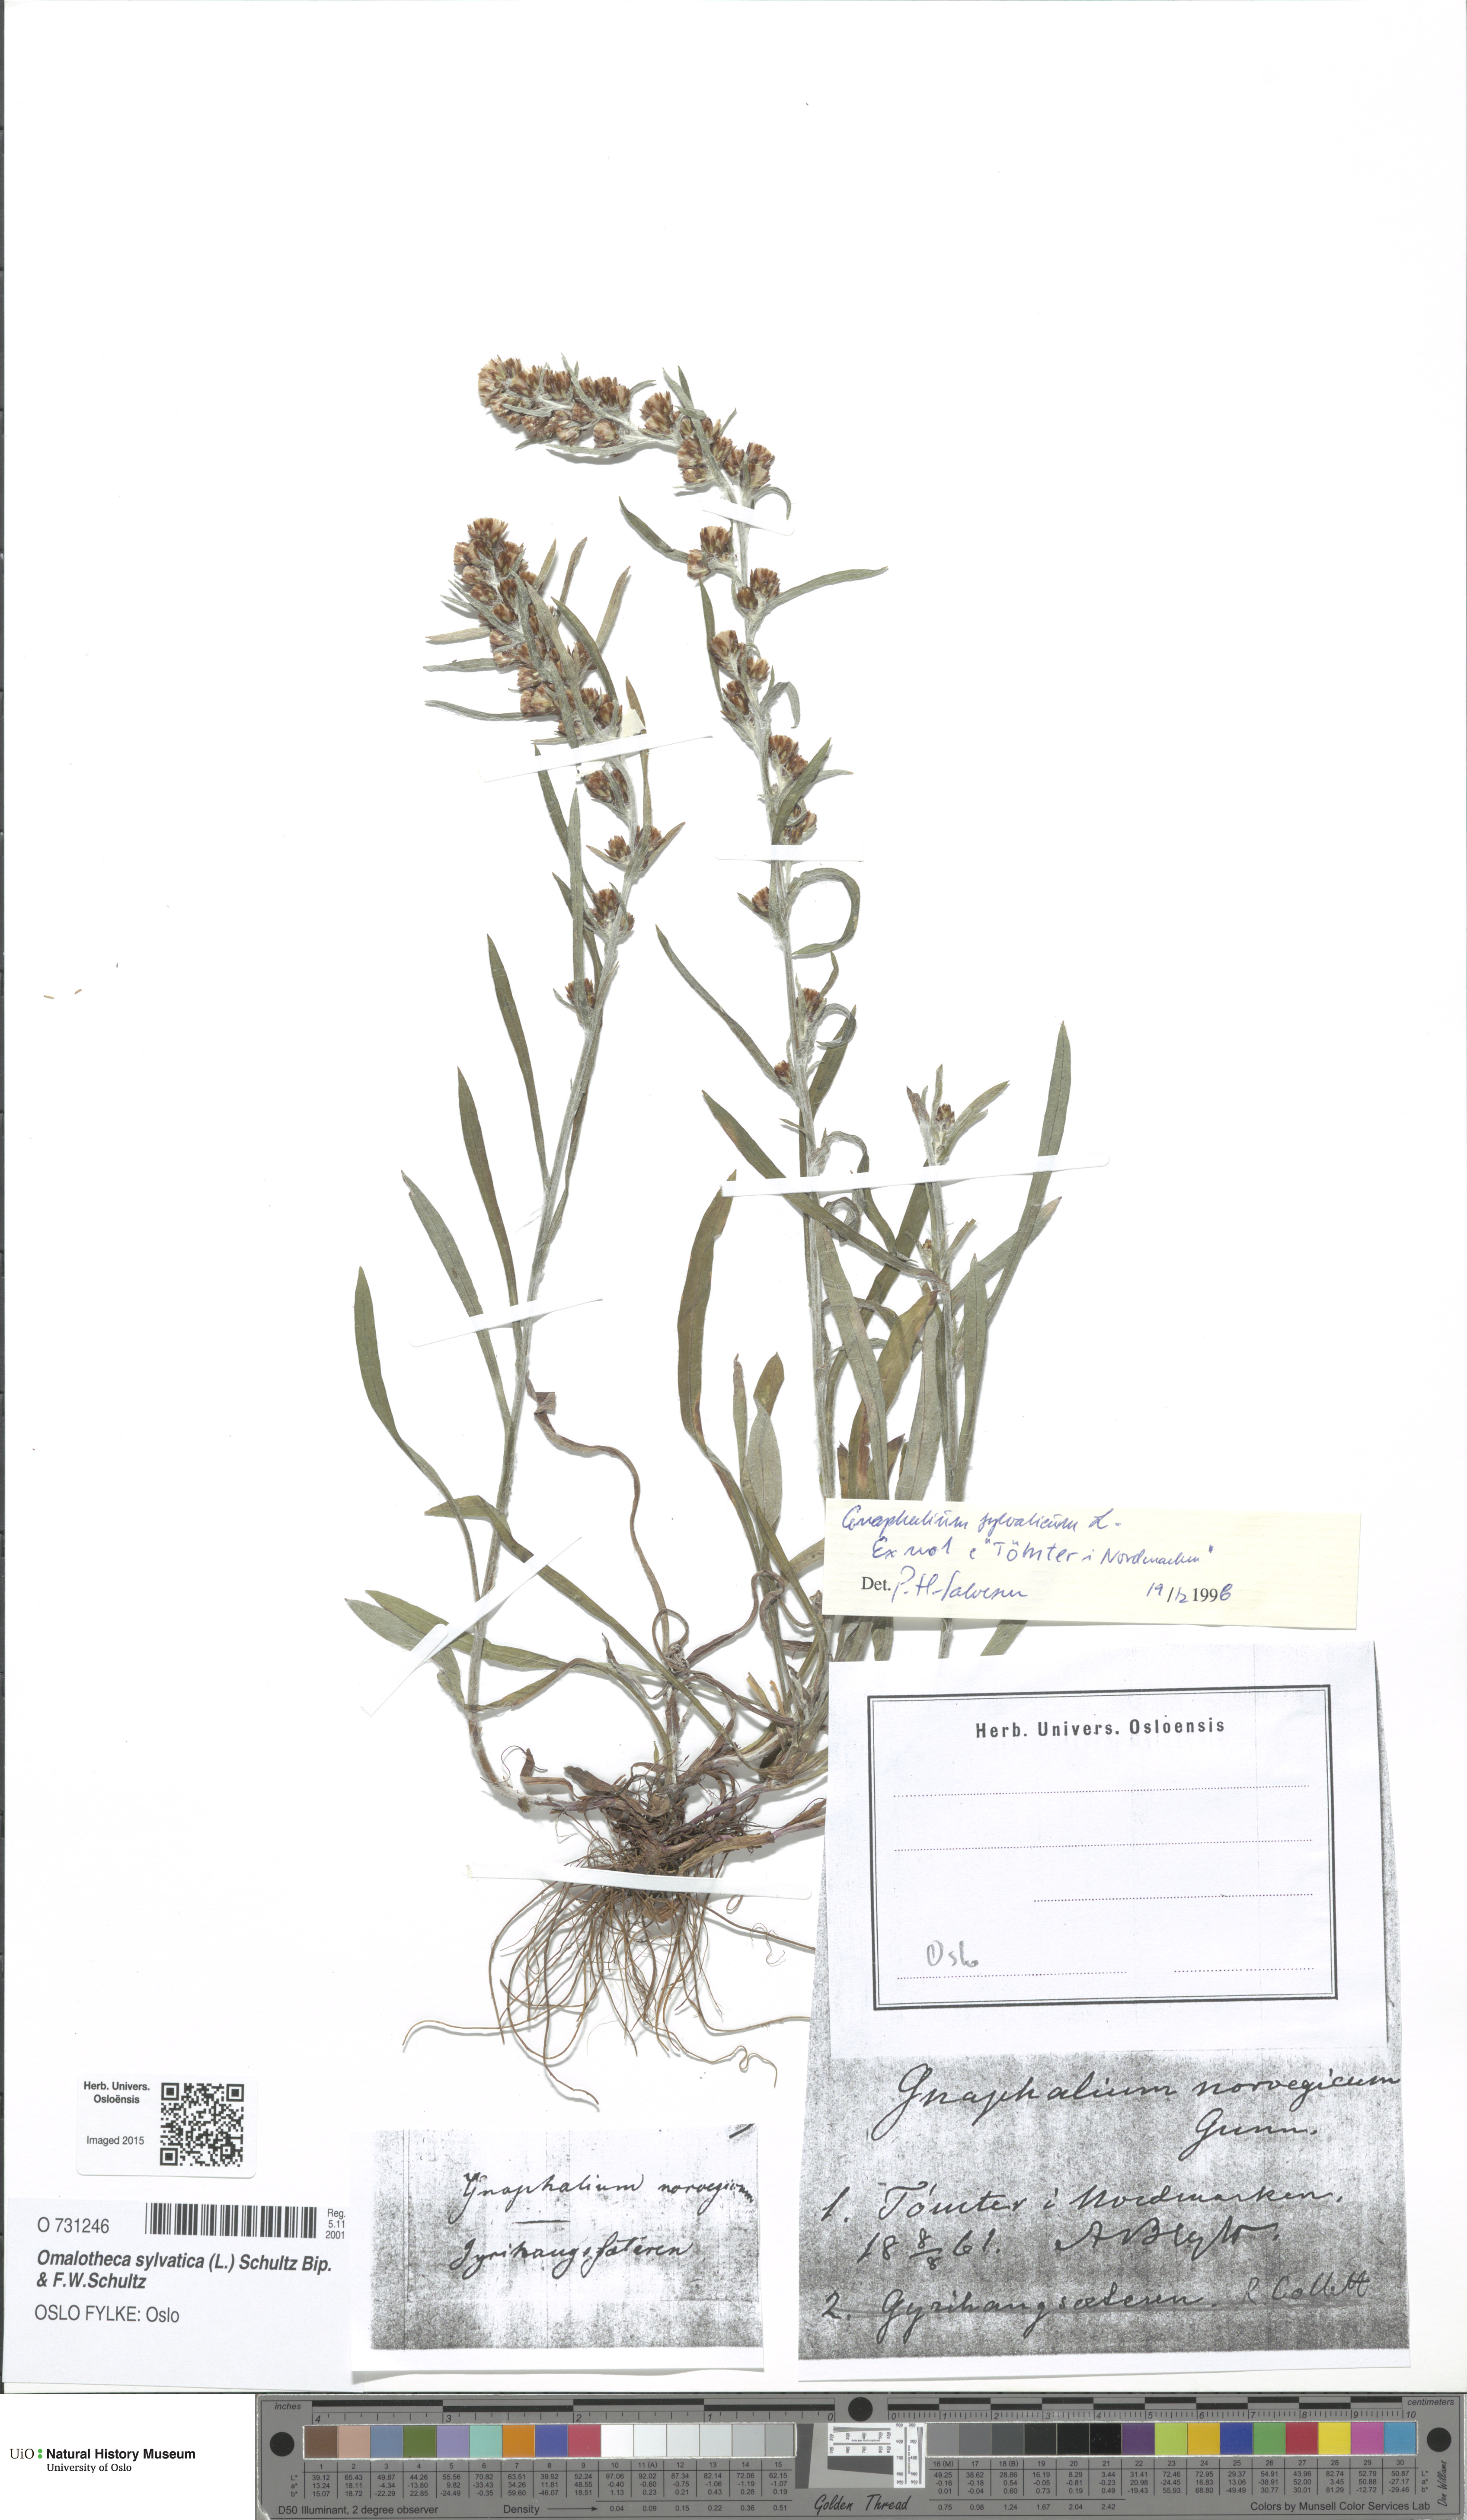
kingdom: Plantae
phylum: Tracheophyta
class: Magnoliopsida
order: Asterales
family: Asteraceae
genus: Omalotheca
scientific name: Omalotheca sylvatica
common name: Heath cudweed
